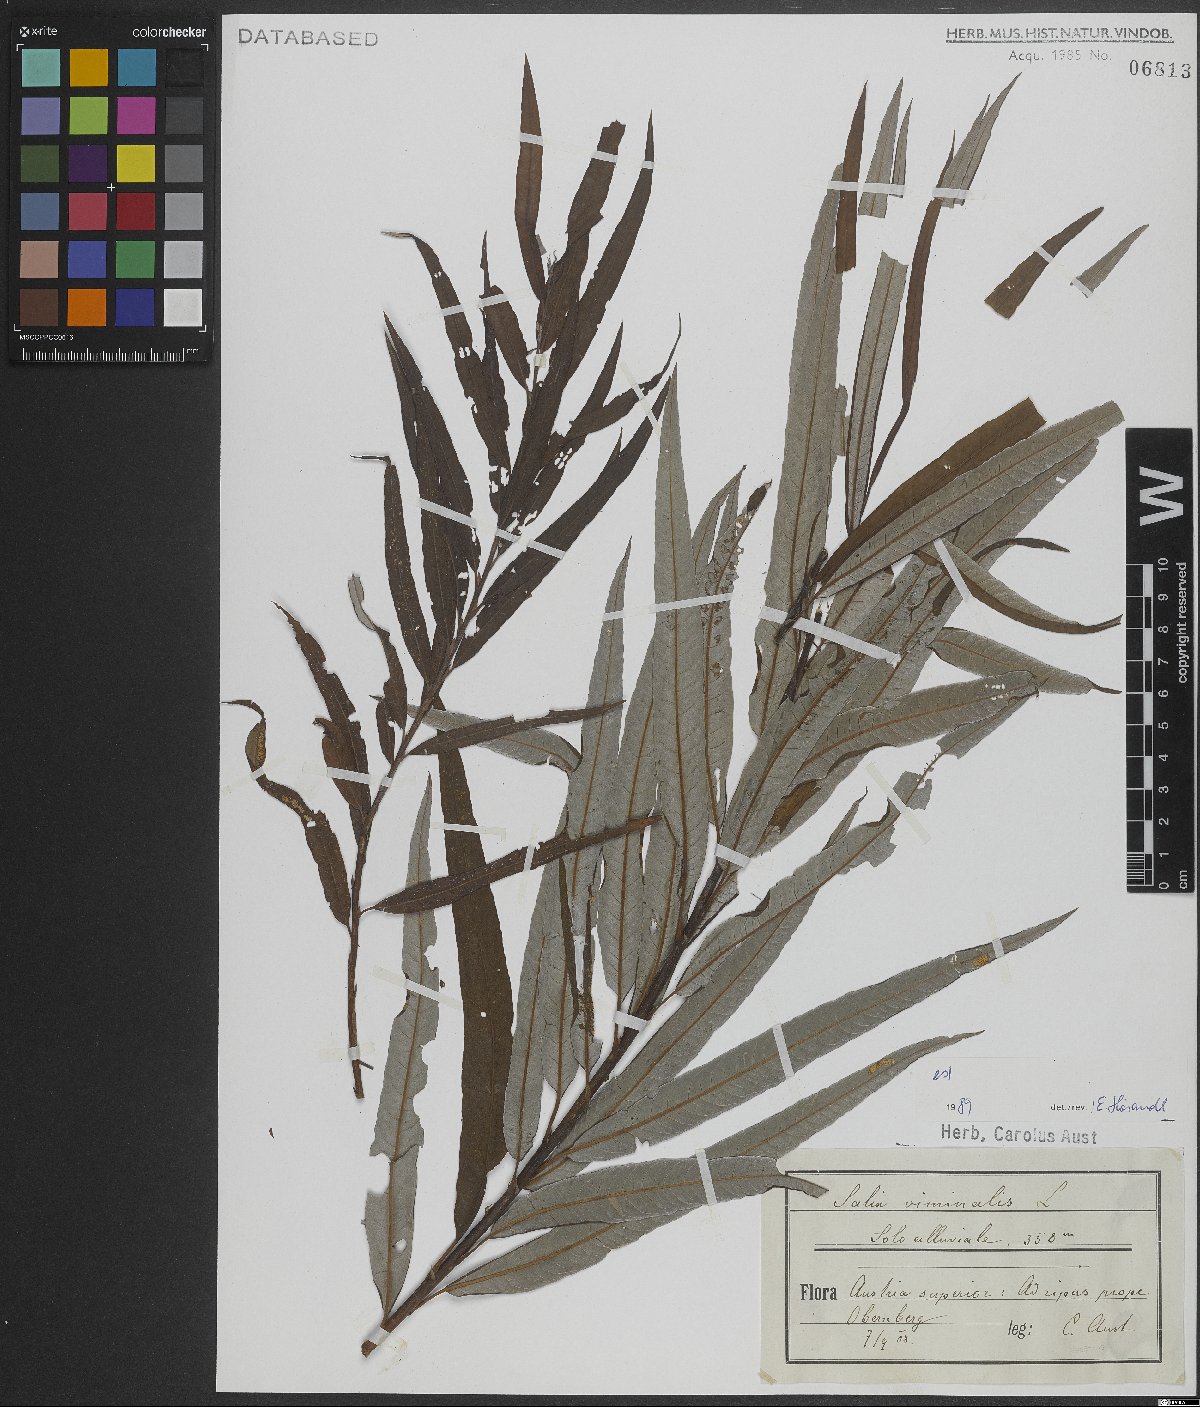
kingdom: Plantae
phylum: Tracheophyta
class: Magnoliopsida
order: Malpighiales
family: Salicaceae
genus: Salix
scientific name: Salix viminalis
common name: Osier
